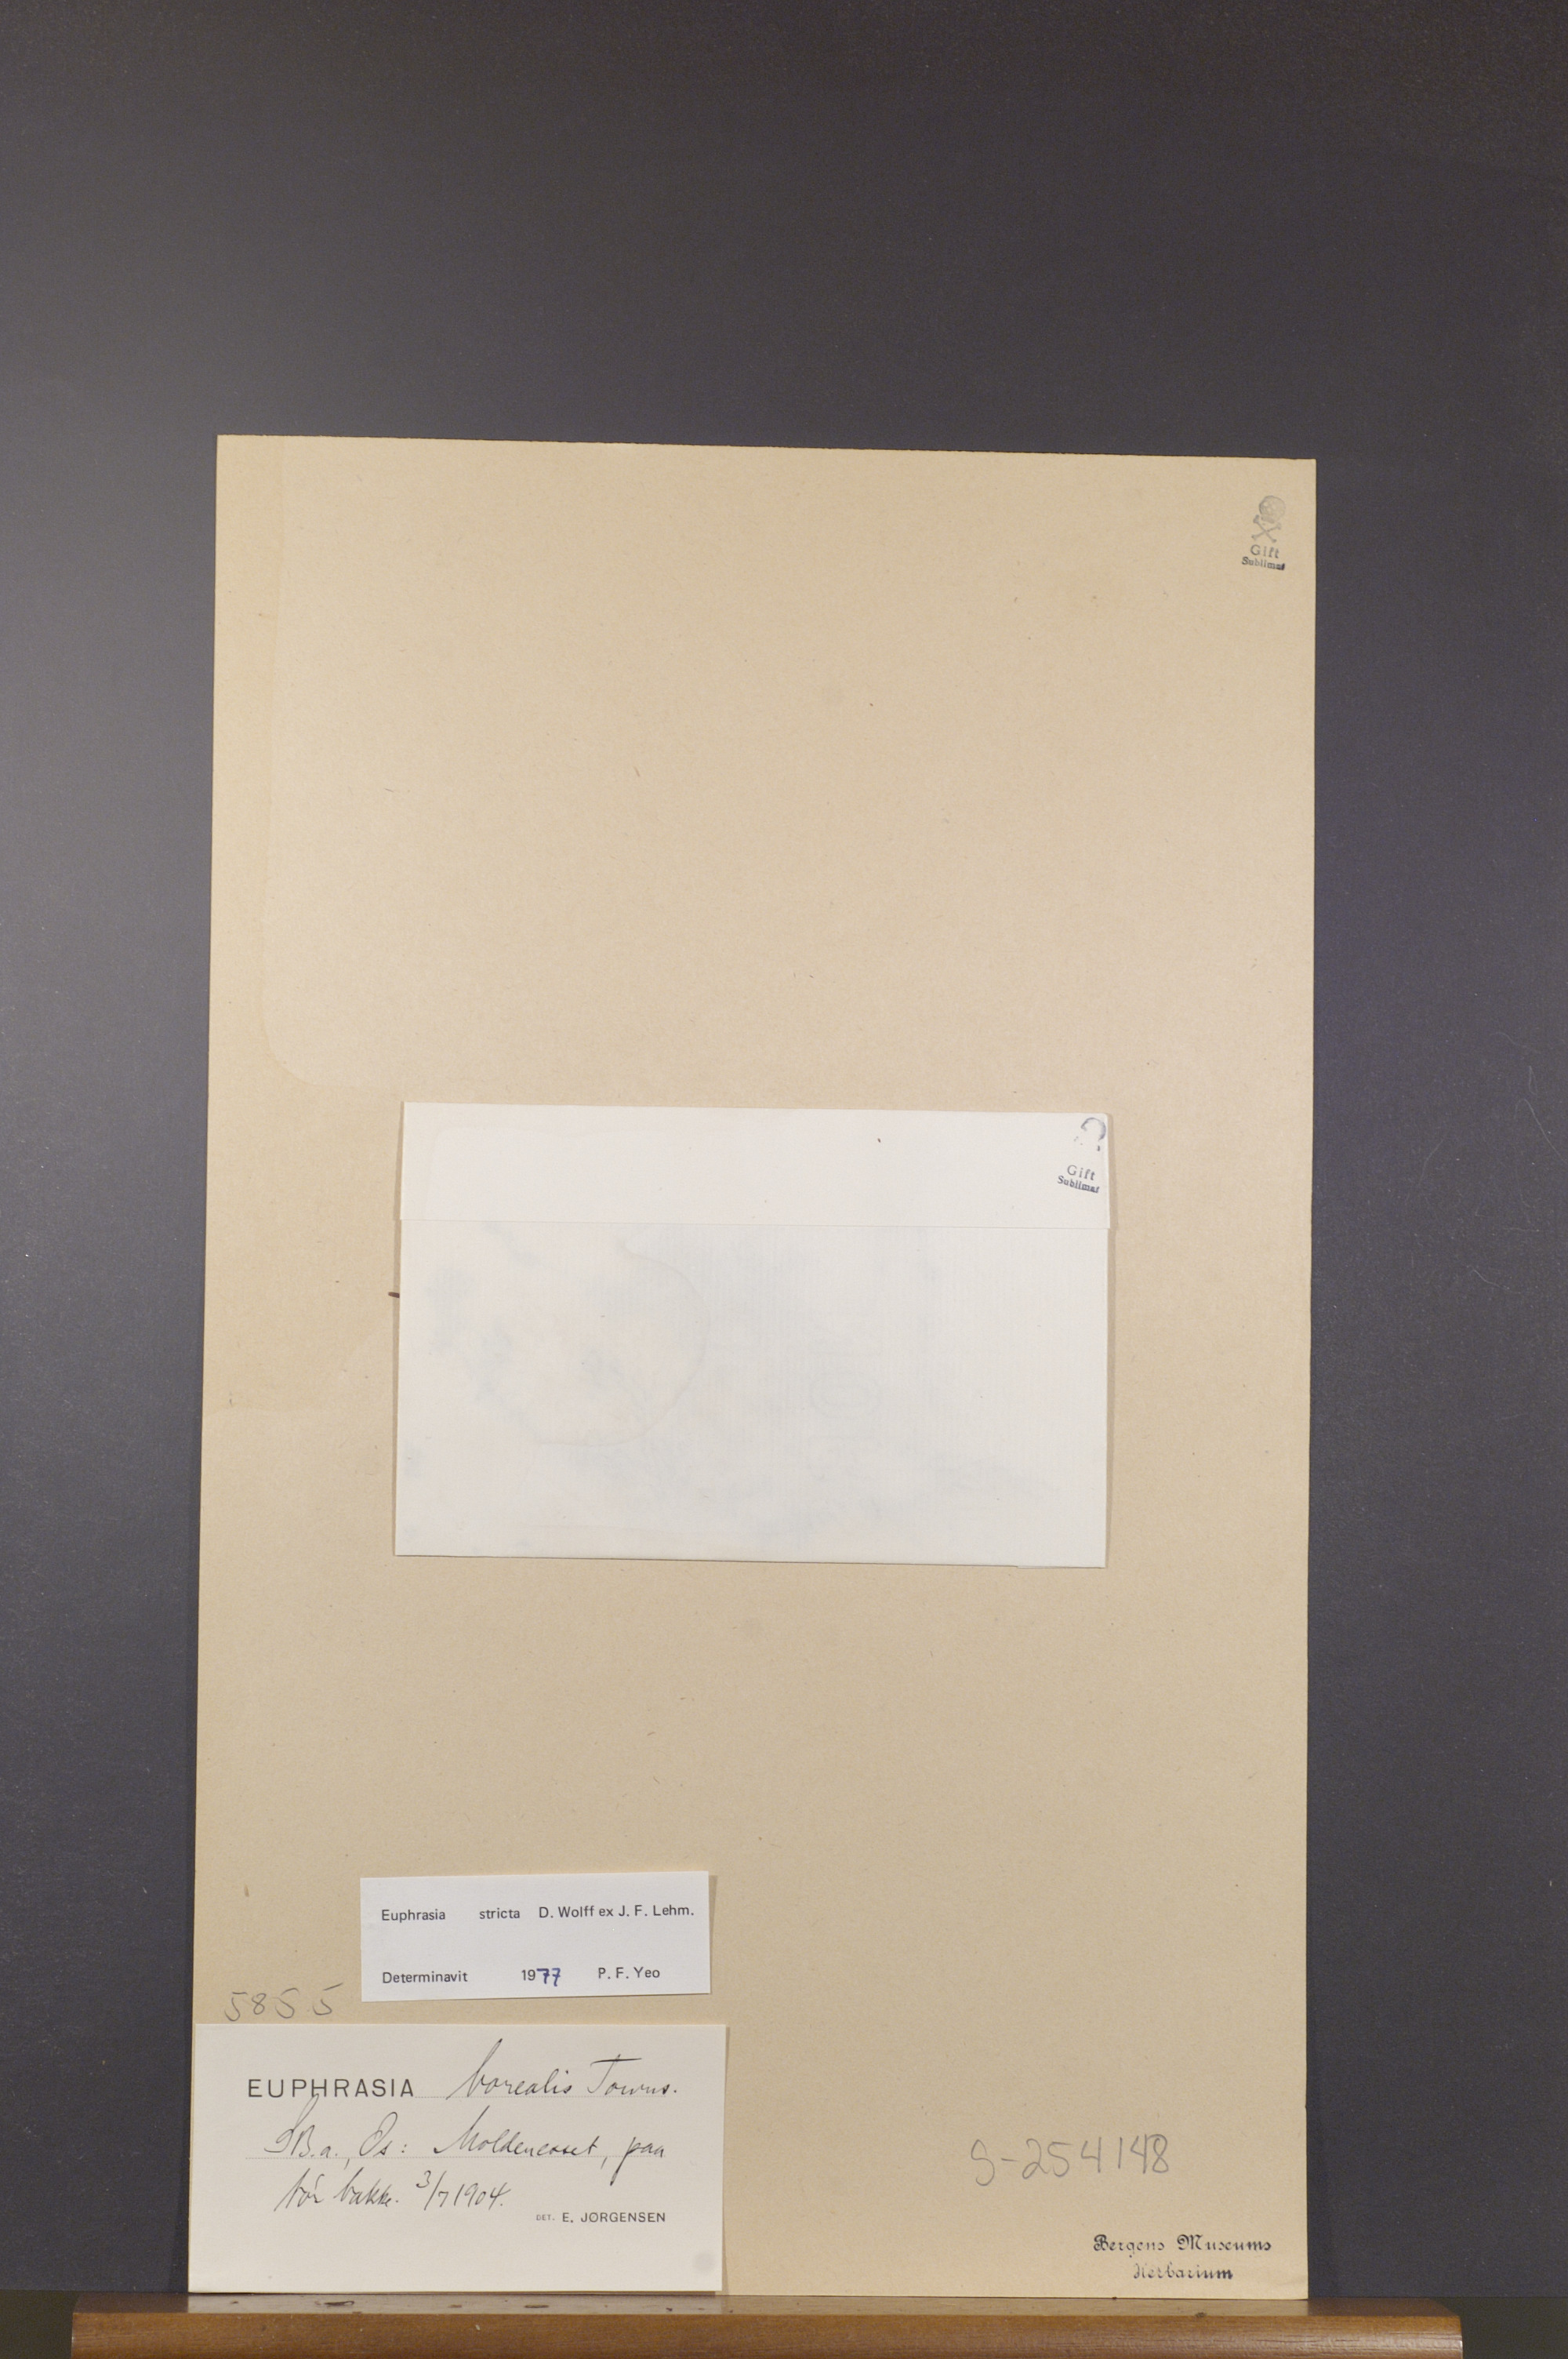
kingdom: Plantae
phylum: Tracheophyta
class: Magnoliopsida
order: Lamiales
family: Orobanchaceae
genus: Euphrasia
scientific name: Euphrasia stricta
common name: Drug eyebright
